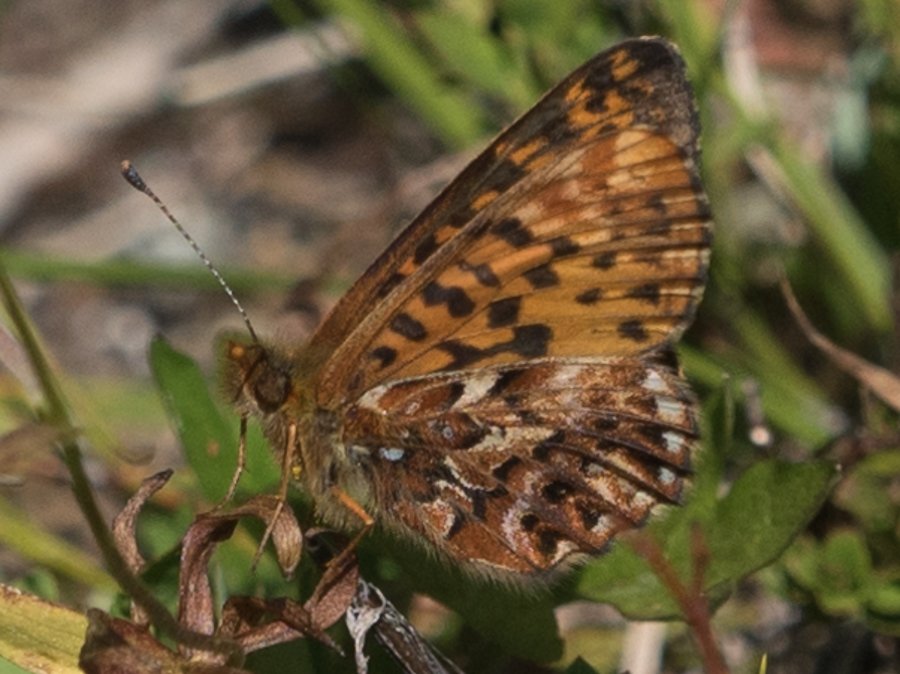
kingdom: Animalia
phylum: Arthropoda
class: Insecta
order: Lepidoptera
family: Nymphalidae
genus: Boloria
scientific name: Boloria chariclea
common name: Arctic Fritillary
